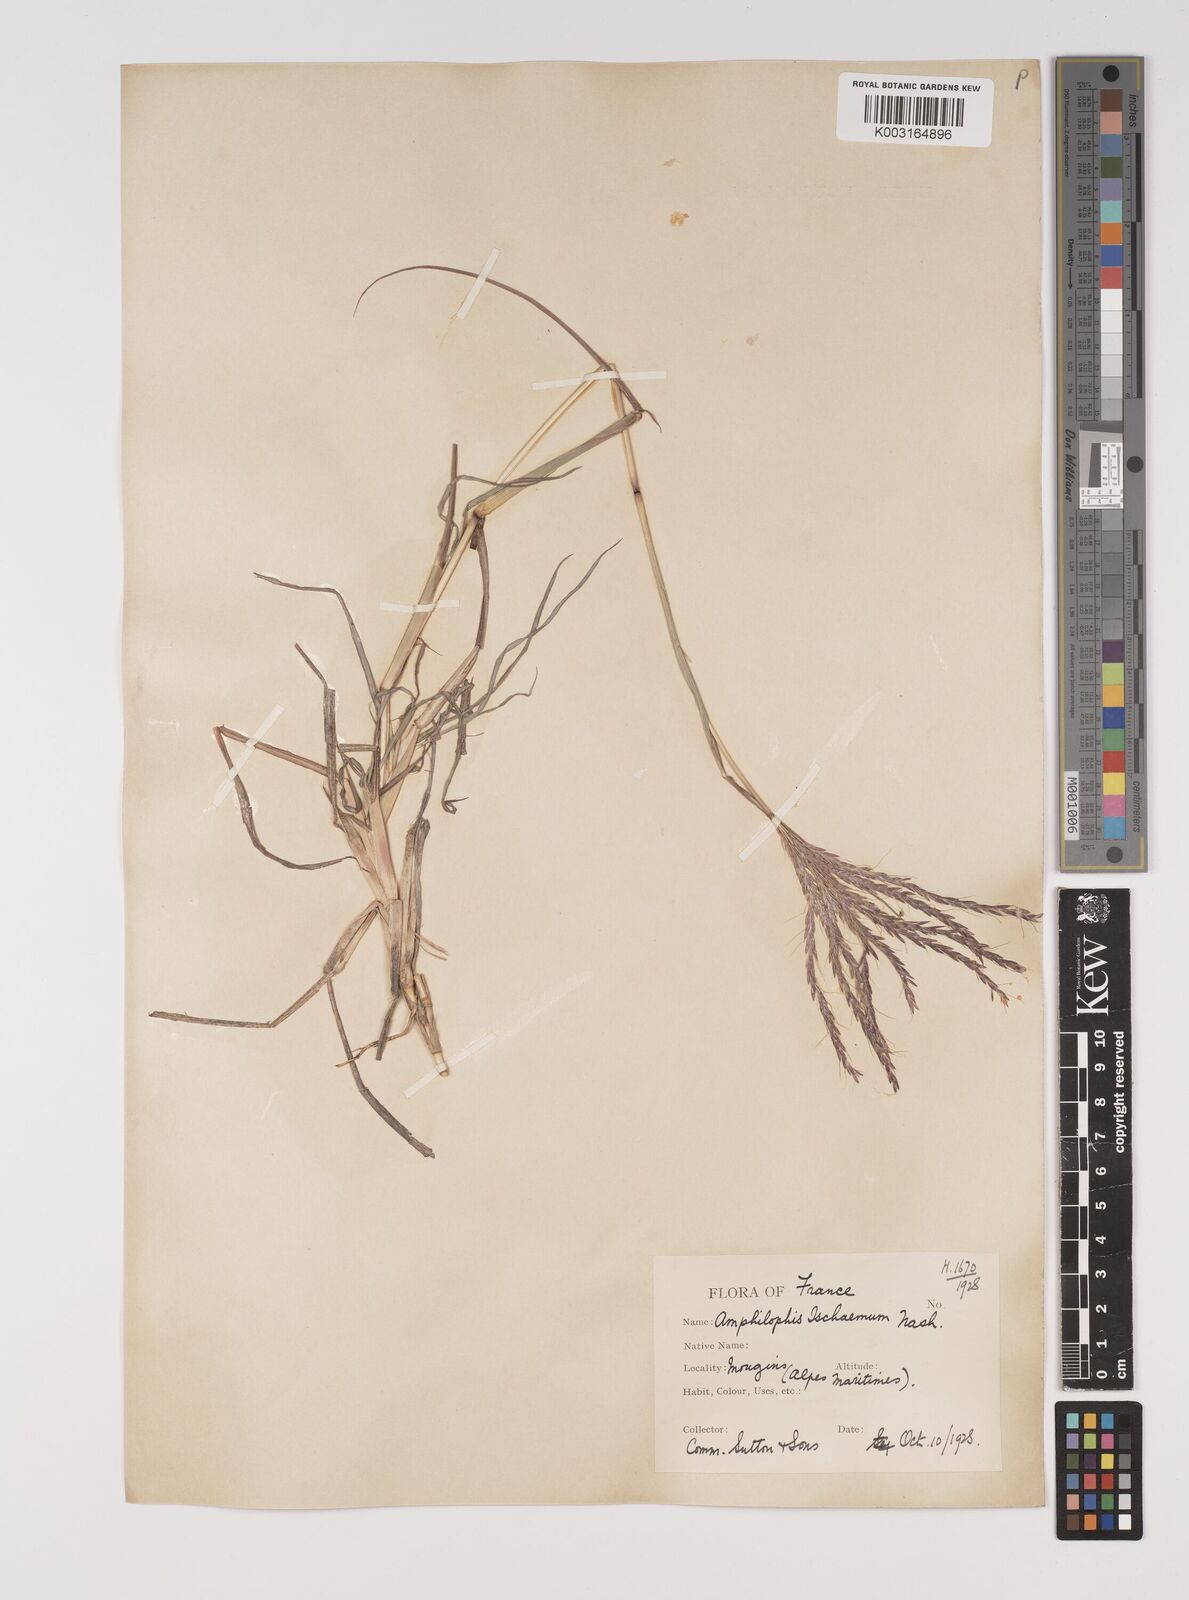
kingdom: Plantae
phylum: Tracheophyta
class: Liliopsida
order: Poales
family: Poaceae
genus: Bothriochloa
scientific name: Bothriochloa ischaemum
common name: Yellow bluestem
